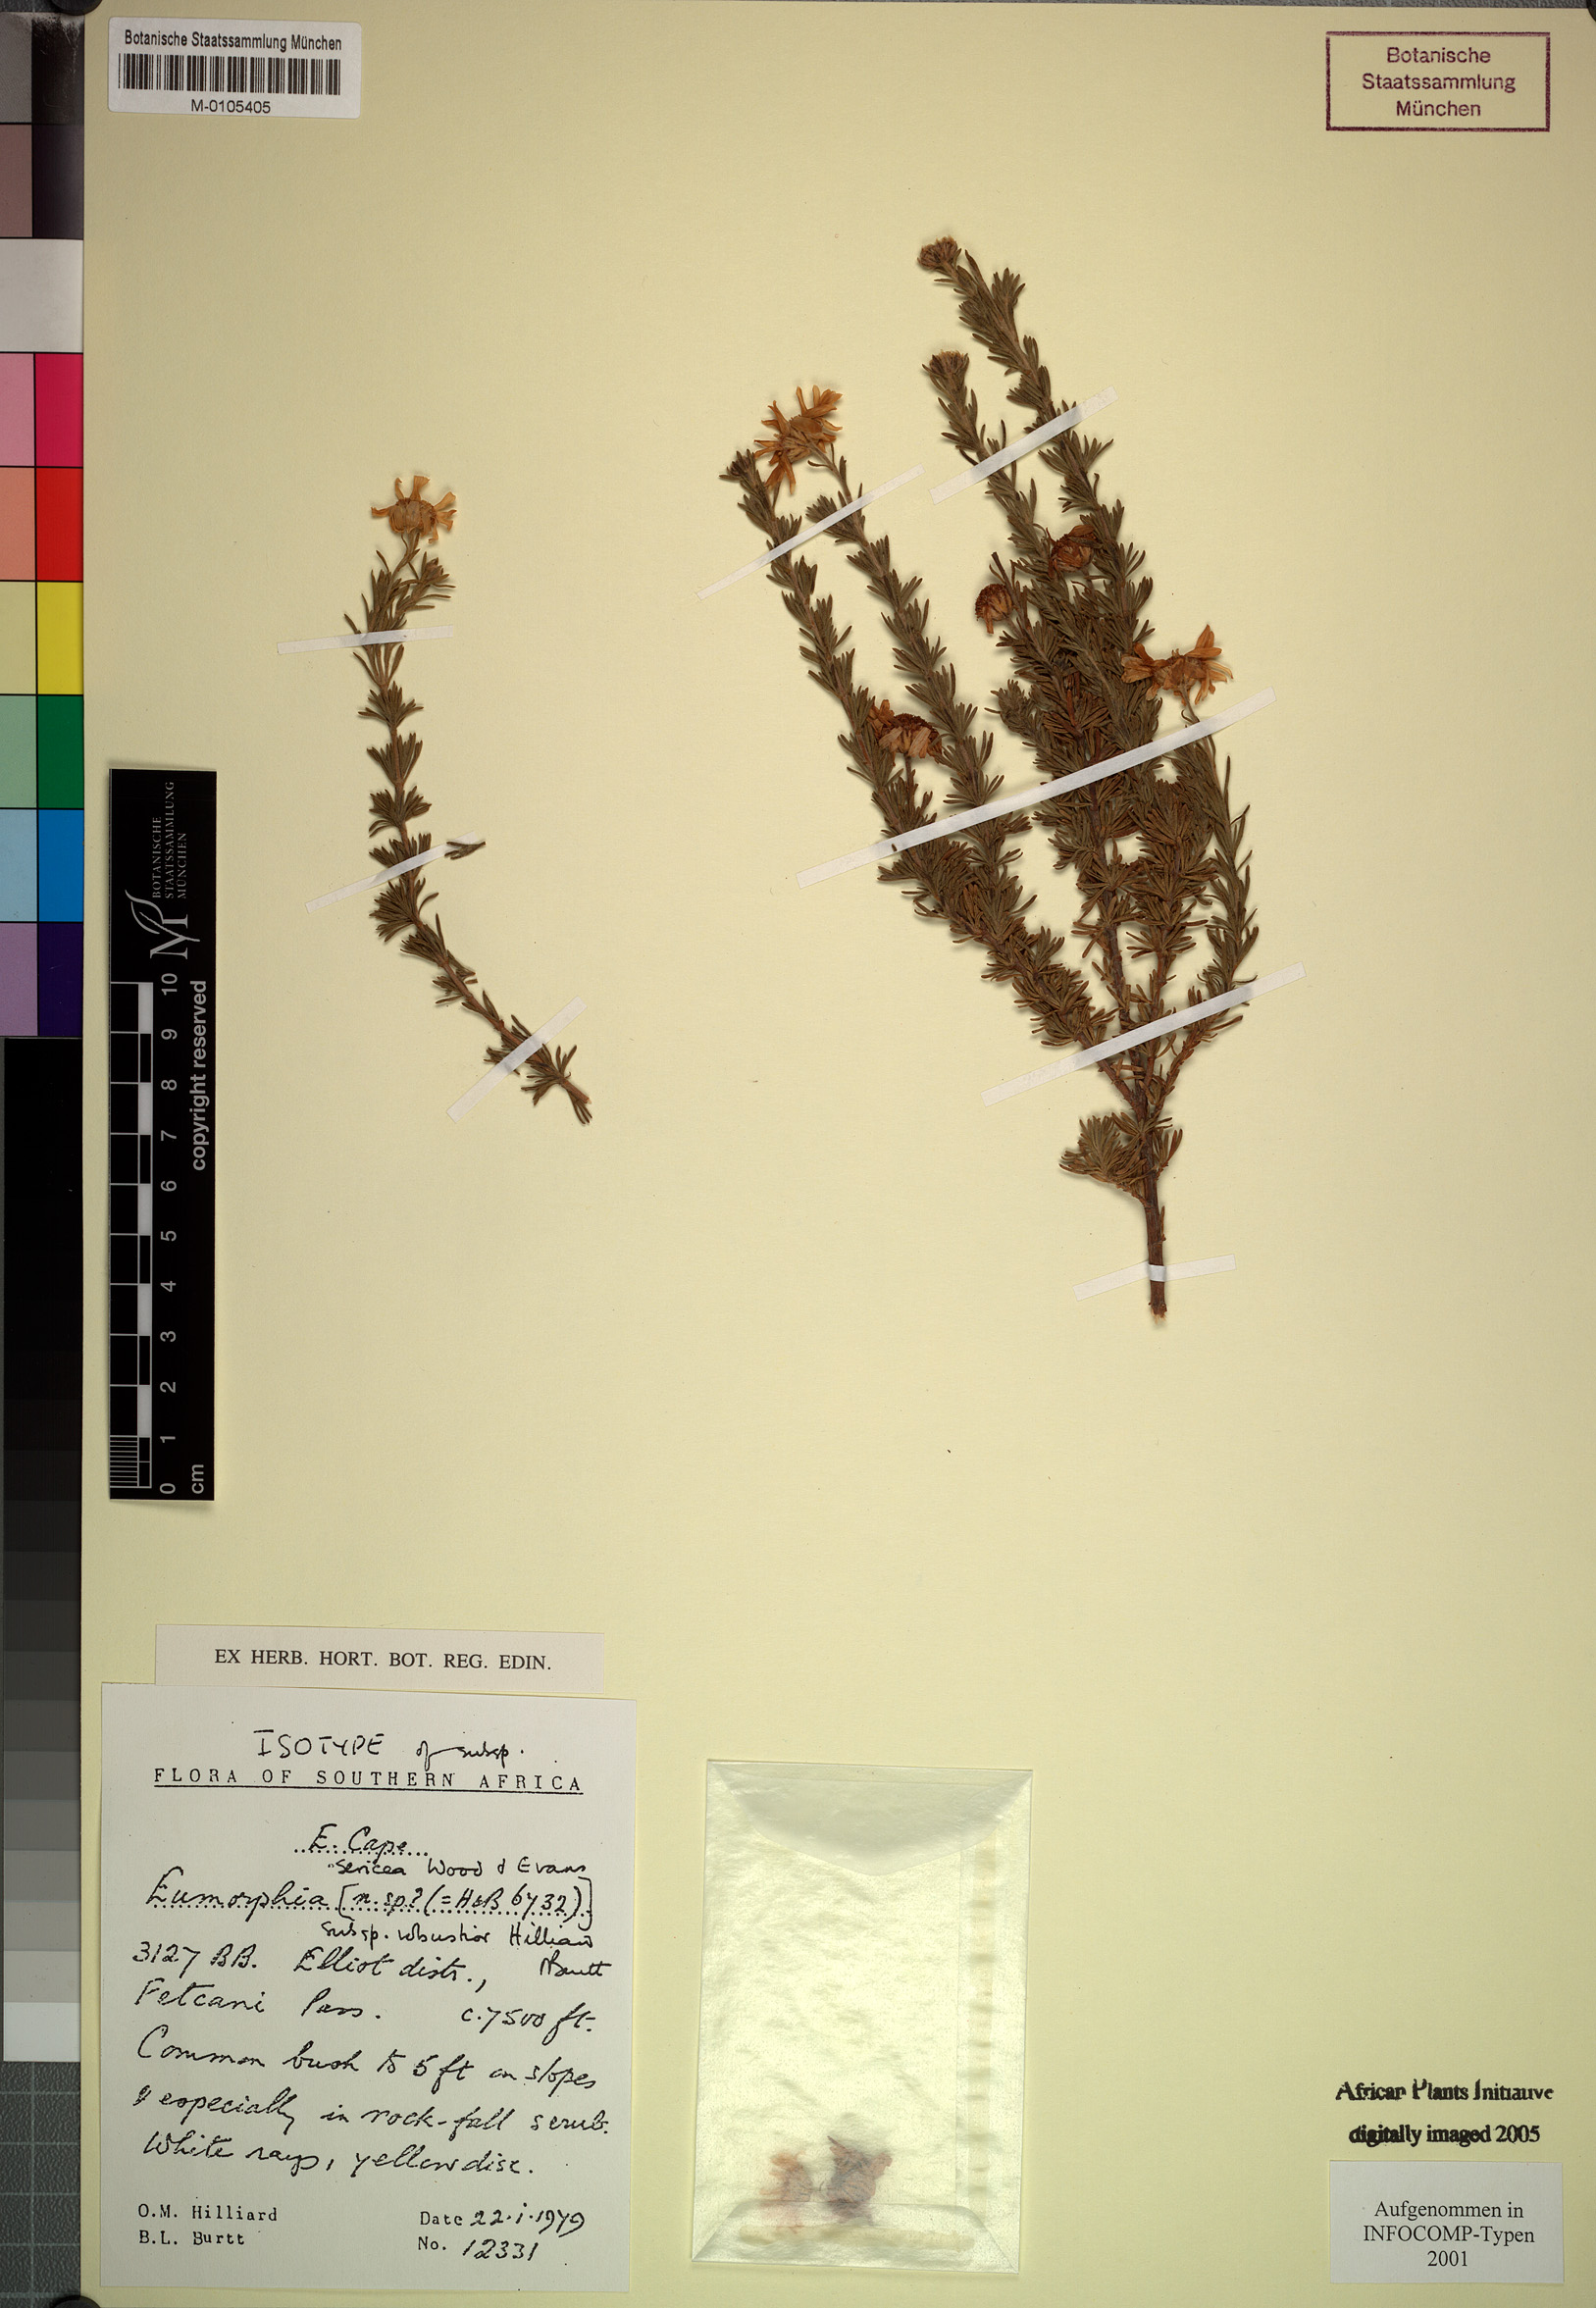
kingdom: Plantae
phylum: Tracheophyta
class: Magnoliopsida
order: Asterales
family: Asteraceae
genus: Eumorphia
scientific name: Eumorphia sericea
